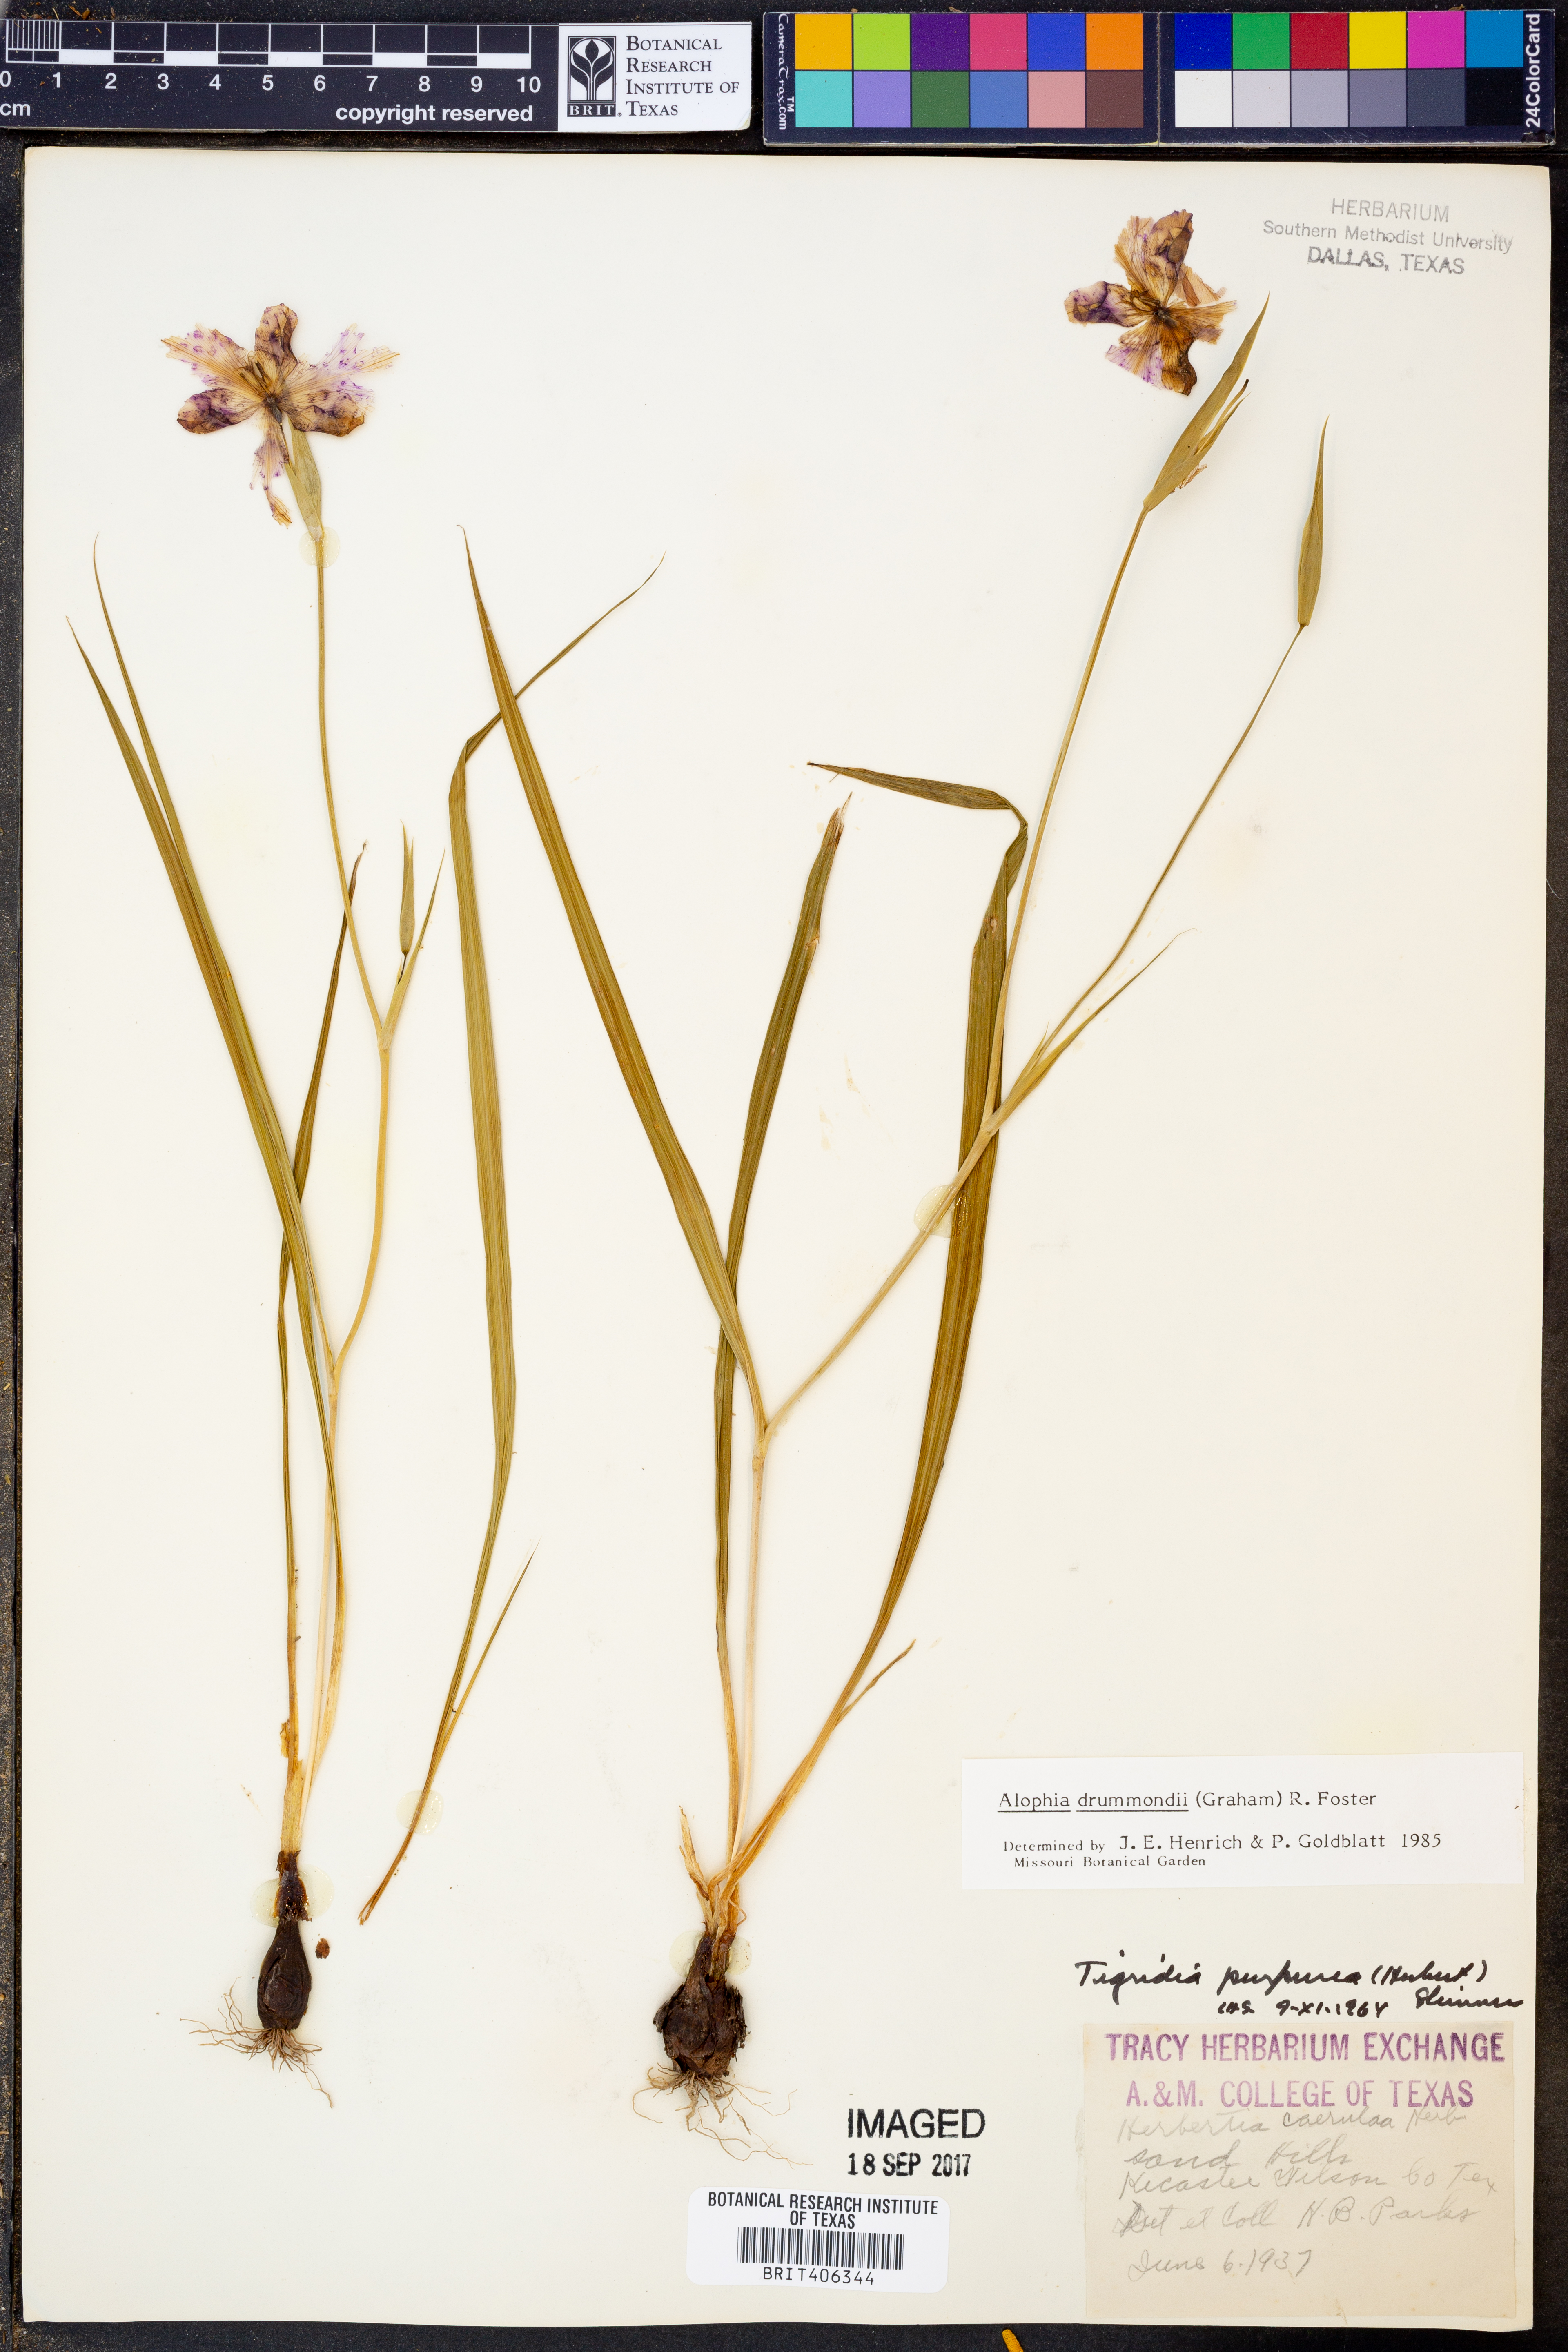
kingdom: Plantae
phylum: Tracheophyta
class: Liliopsida
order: Asparagales
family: Iridaceae
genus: Alophia
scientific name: Alophia drummondii
